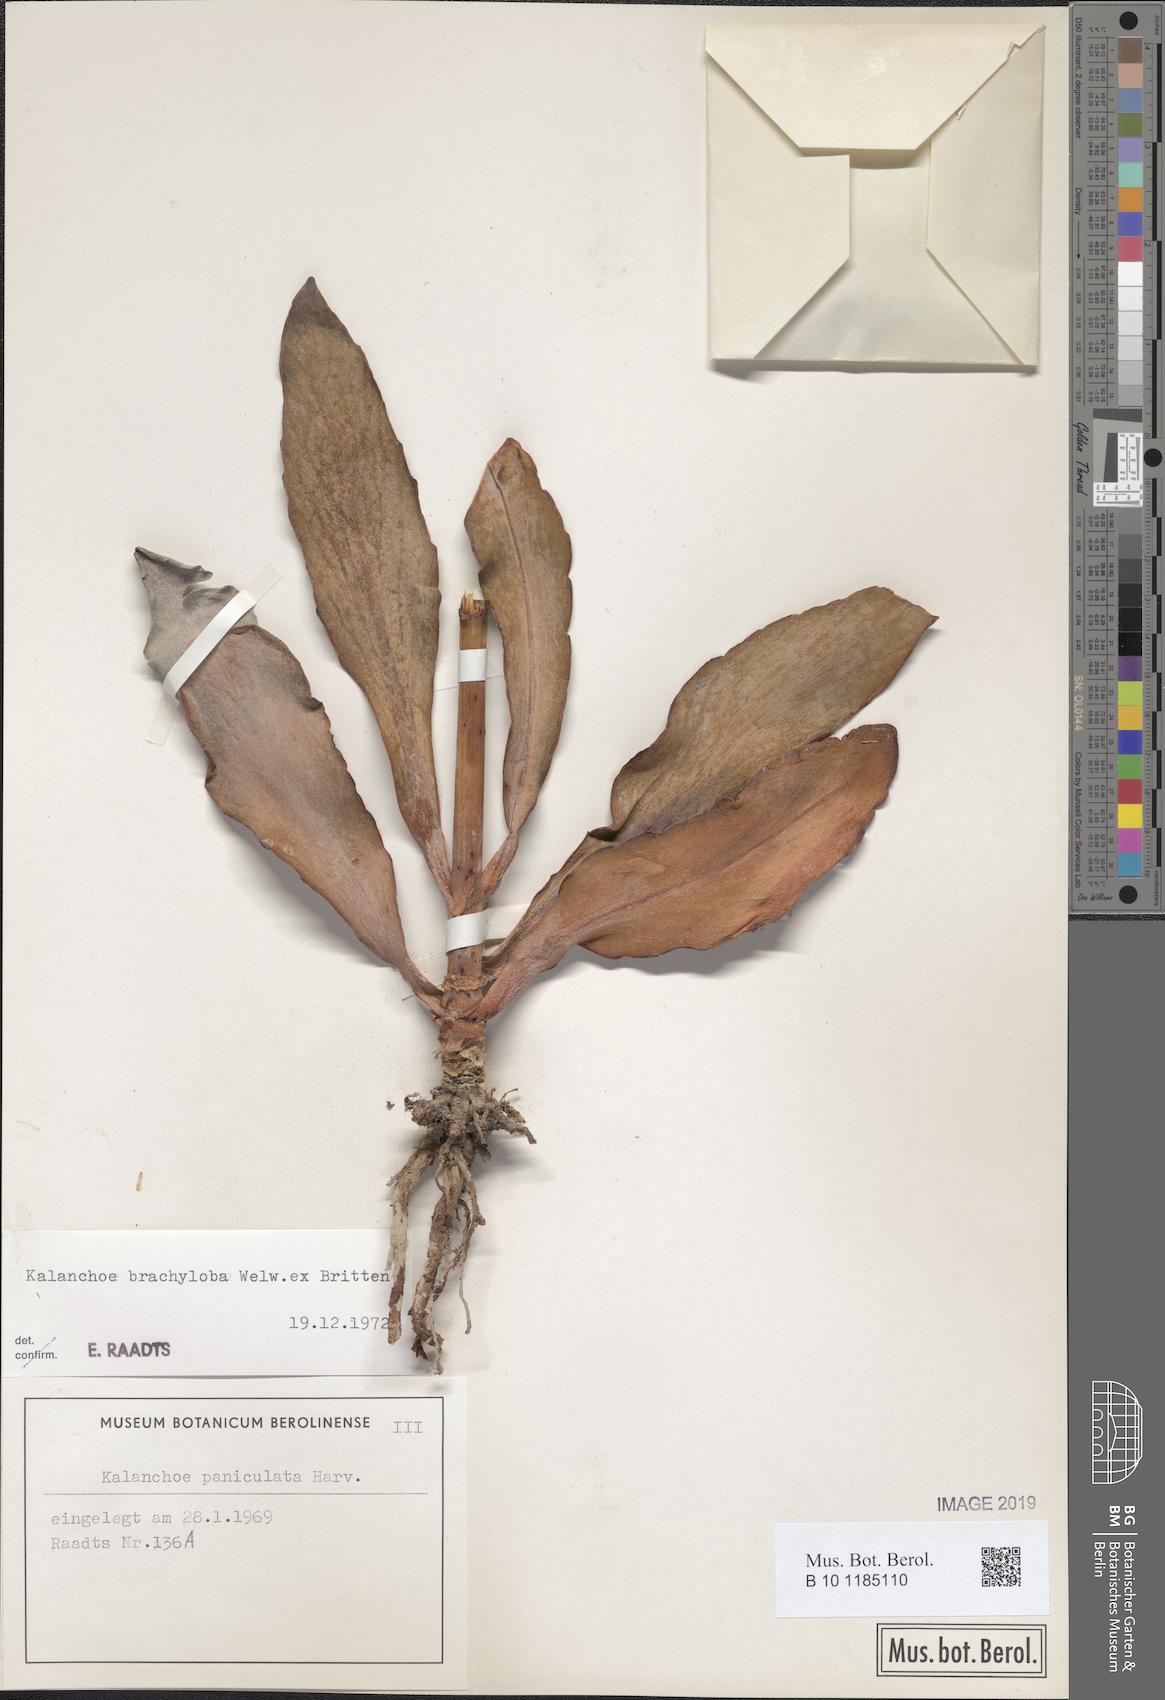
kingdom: Plantae
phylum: Tracheophyta
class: Magnoliopsida
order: Saxifragales
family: Crassulaceae
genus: Kalanchoe
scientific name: Kalanchoe brachyloba
